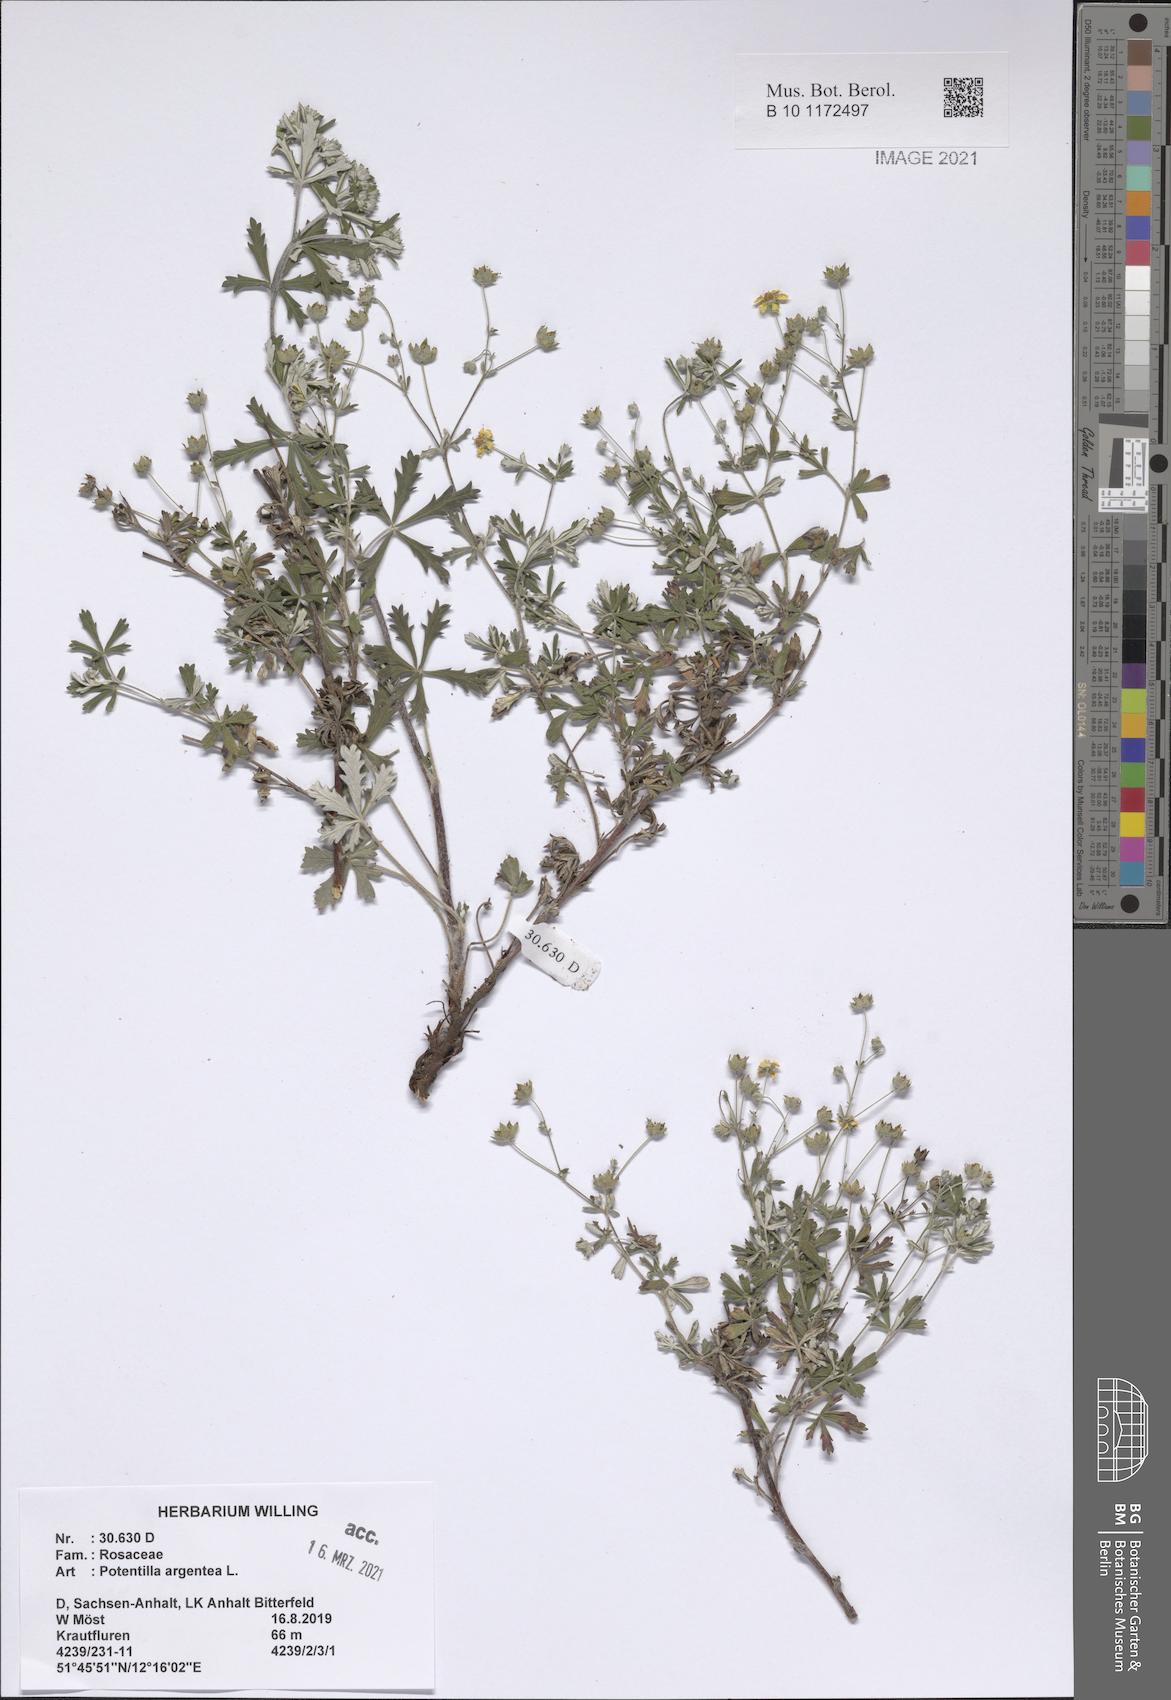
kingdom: Plantae
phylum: Tracheophyta
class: Magnoliopsida
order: Rosales
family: Rosaceae
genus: Potentilla
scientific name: Potentilla argentea
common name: Hoary cinquefoil
